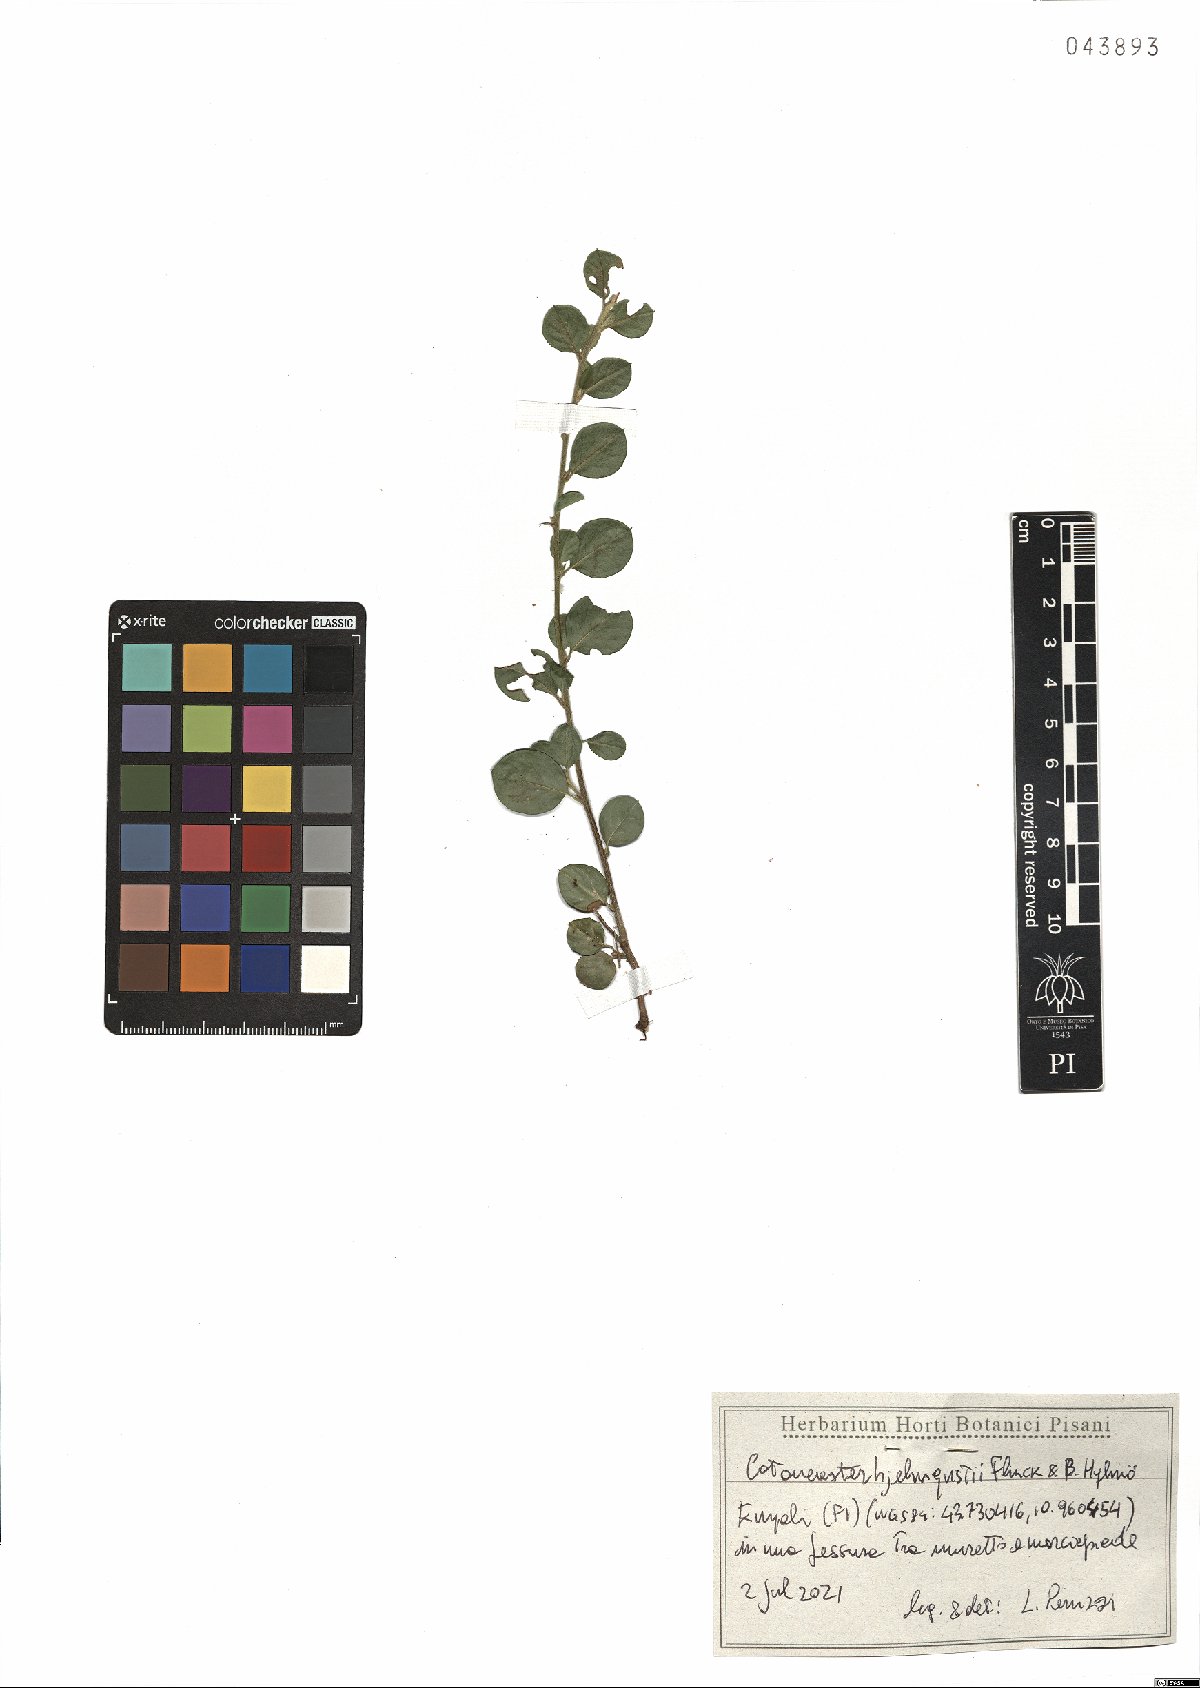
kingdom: Plantae
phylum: Tracheophyta
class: Magnoliopsida
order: Rosales
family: Rosaceae
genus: Cotoneaster
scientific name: Cotoneaster hjelmqvistii
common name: Hjelmqvist's cotoneaster
